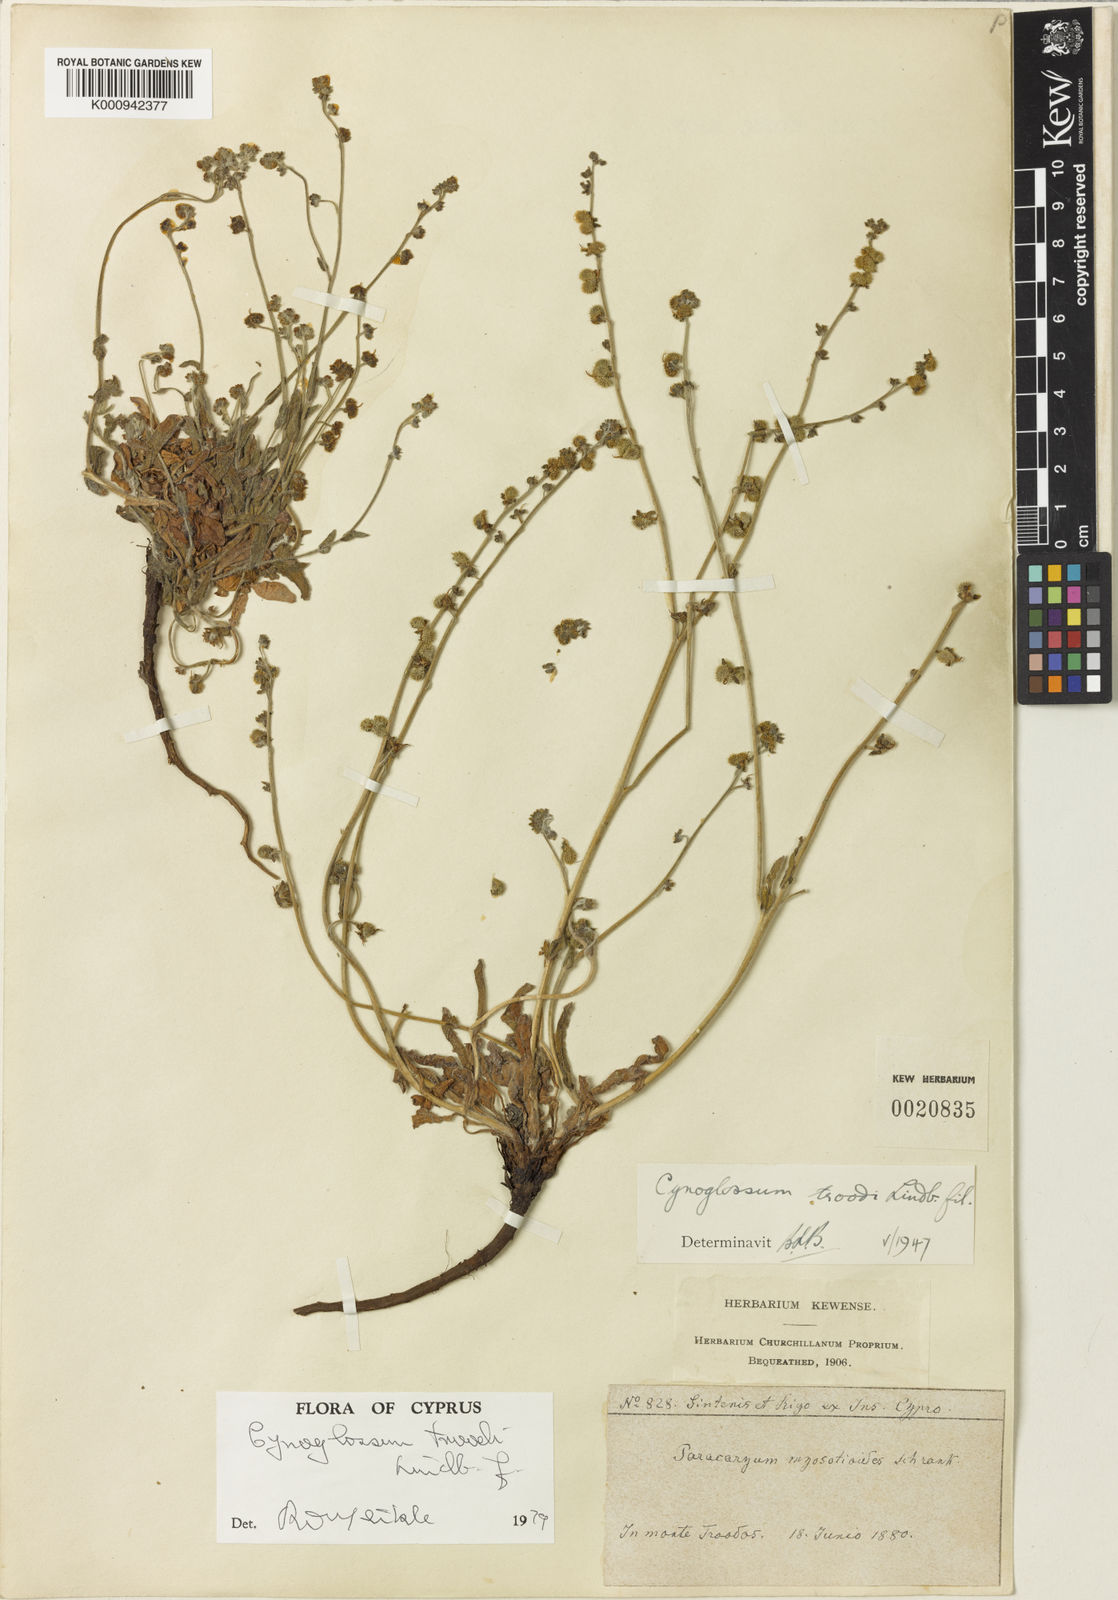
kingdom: Plantae
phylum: Tracheophyta
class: Magnoliopsida
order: Boraginales
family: Boraginaceae
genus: Paracaryum
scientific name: Paracaryum lithospermifolium
